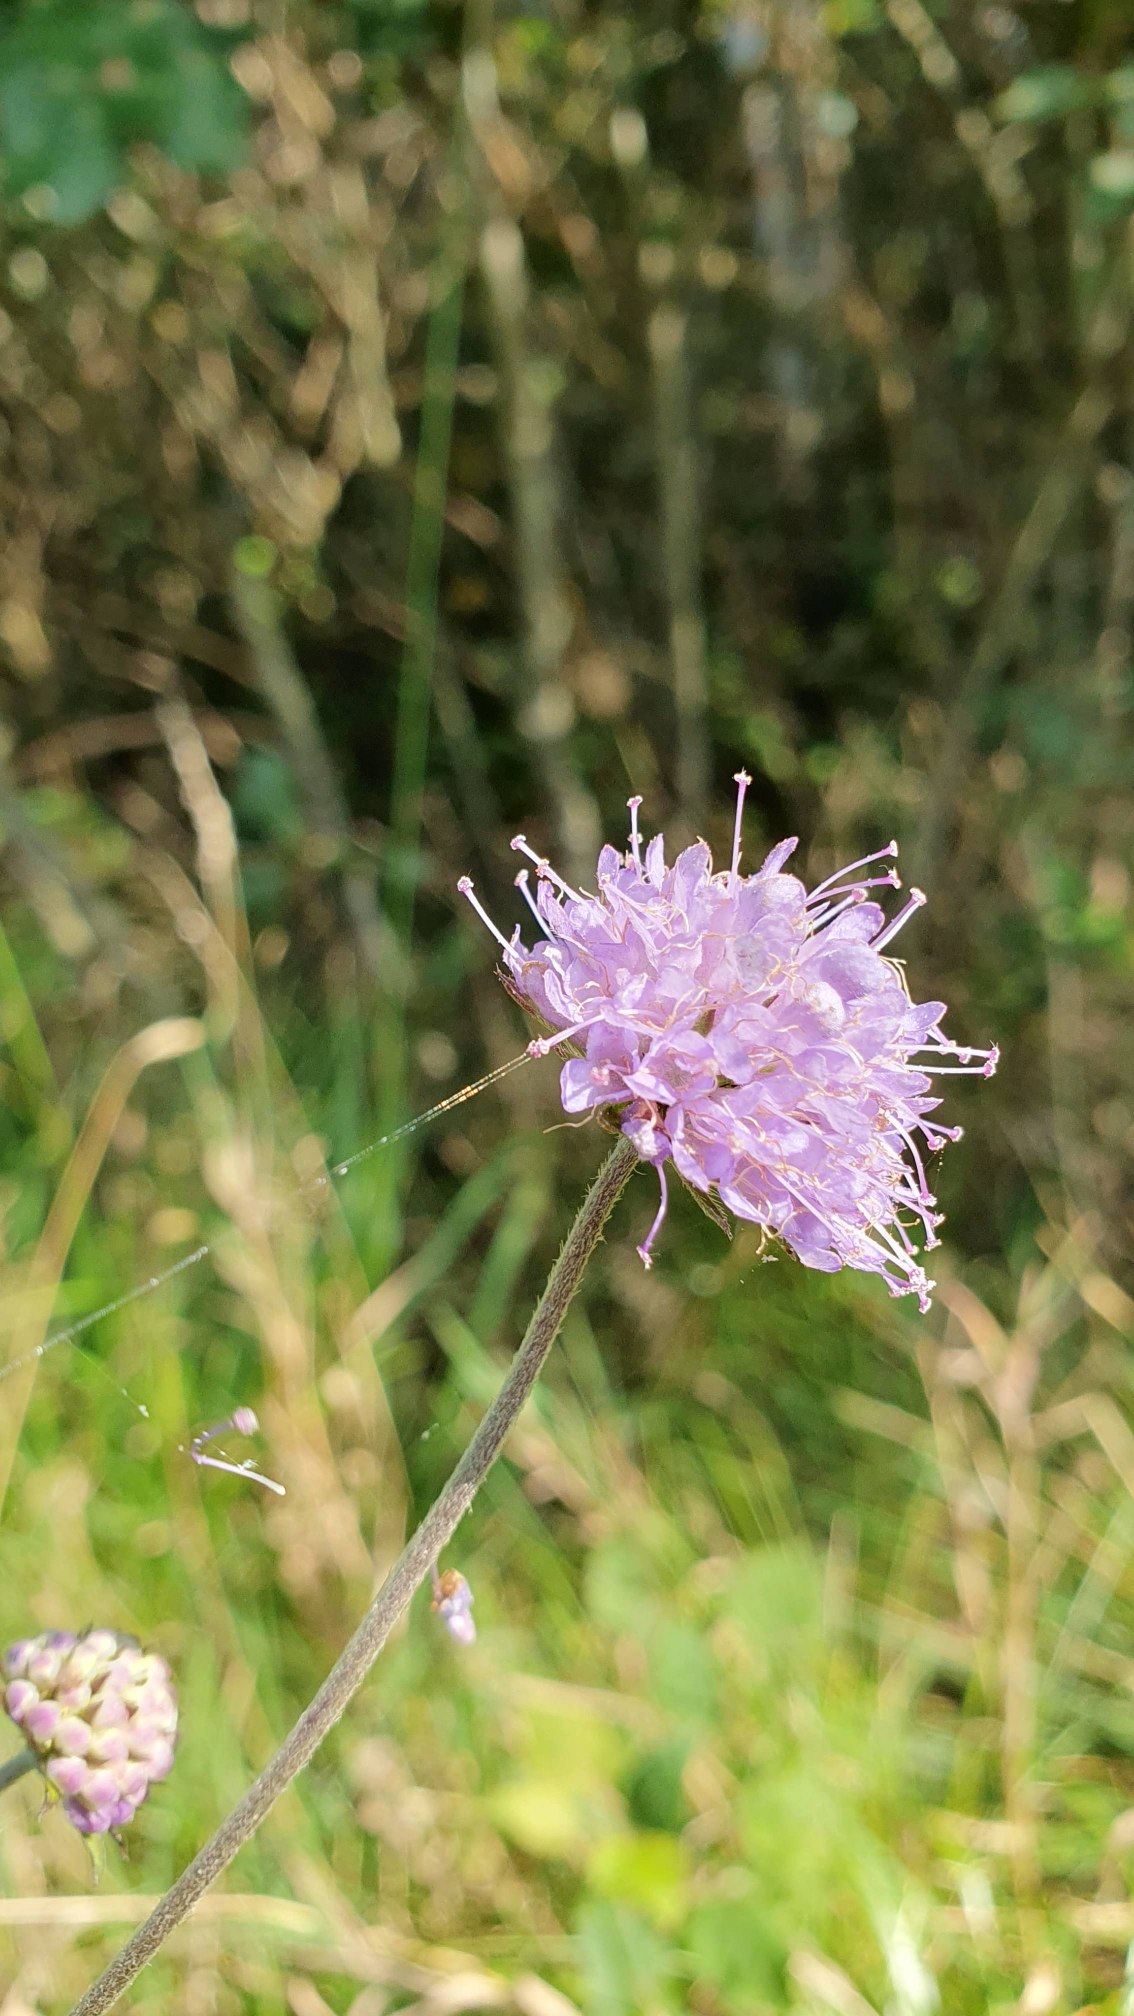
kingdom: Plantae
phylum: Tracheophyta
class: Magnoliopsida
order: Dipsacales
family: Caprifoliaceae
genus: Succisa
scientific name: Succisa pratensis
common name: Djævelsbid
